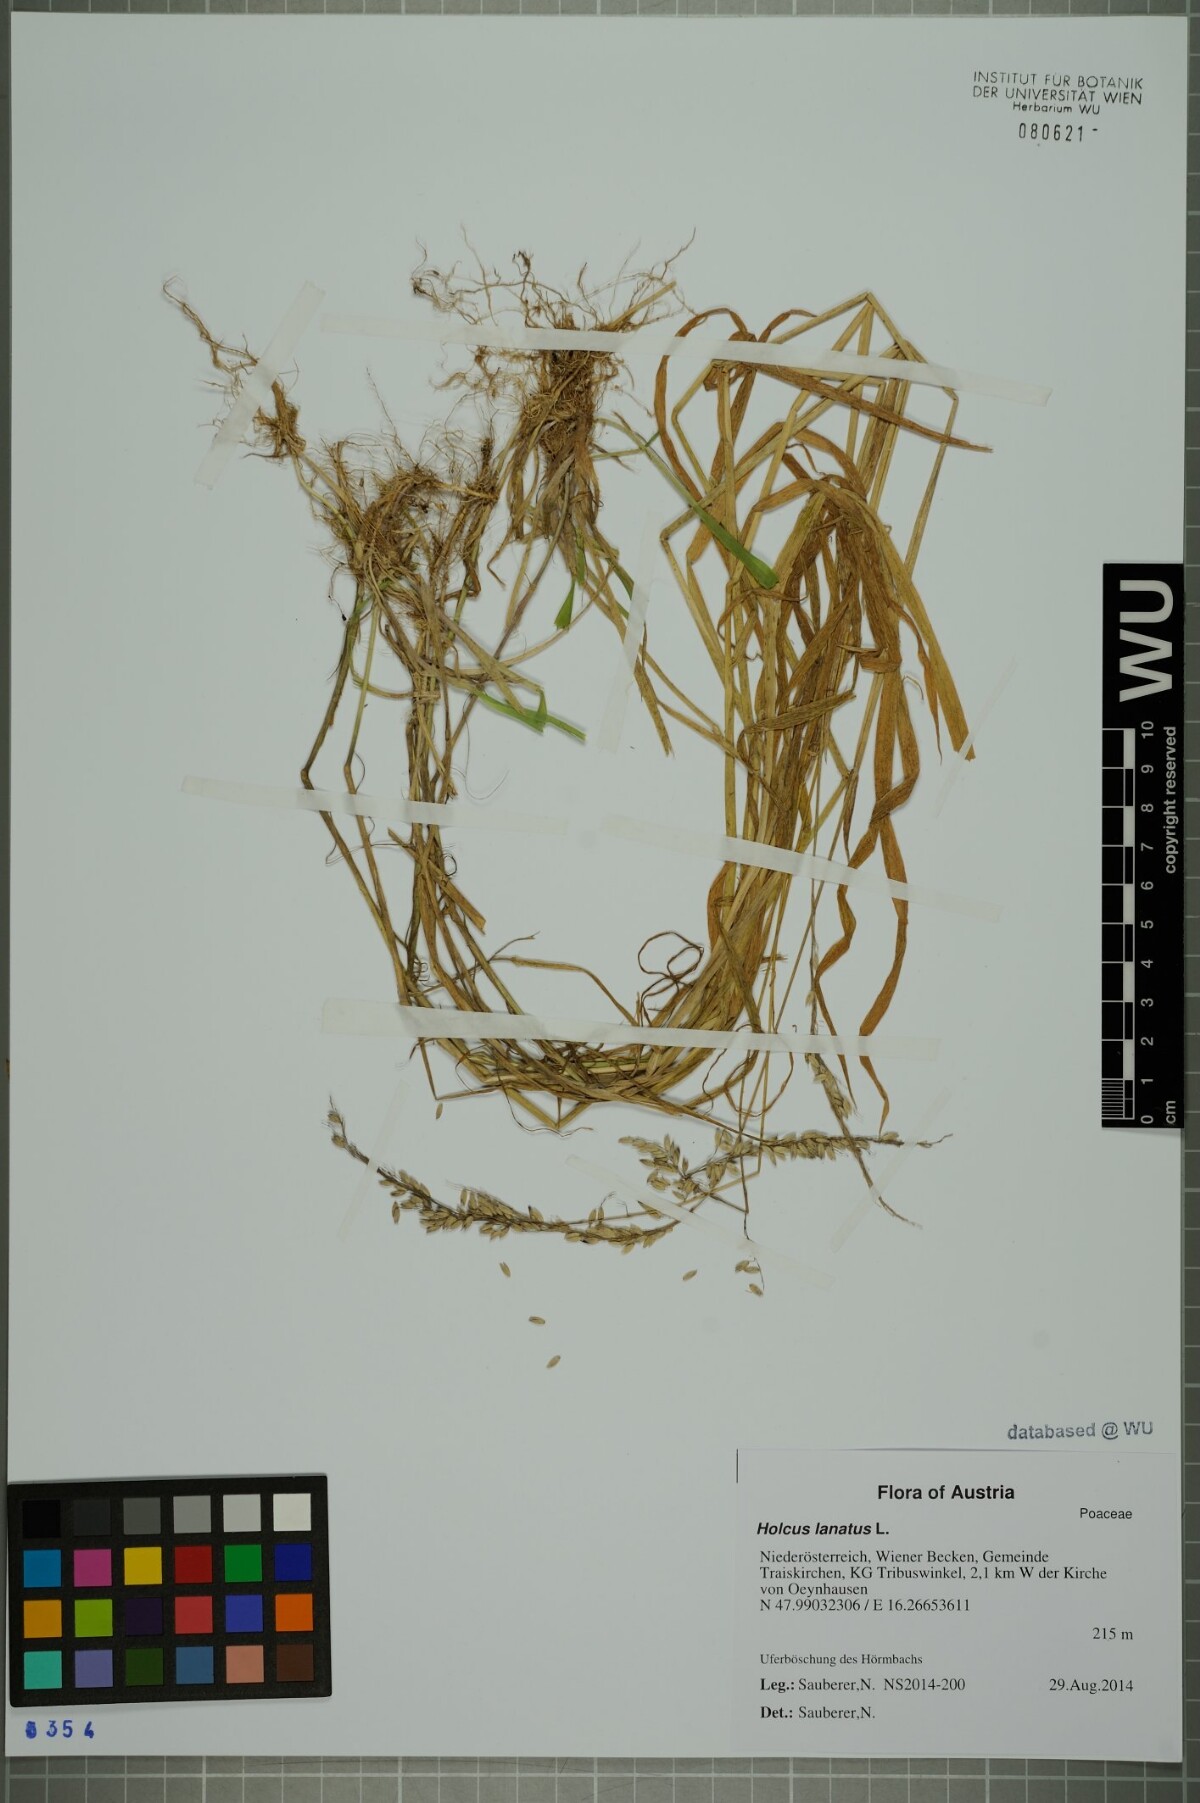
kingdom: Plantae
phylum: Tracheophyta
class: Liliopsida
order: Poales
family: Poaceae
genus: Holcus
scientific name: Holcus lanatus
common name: Yorkshire-fog
